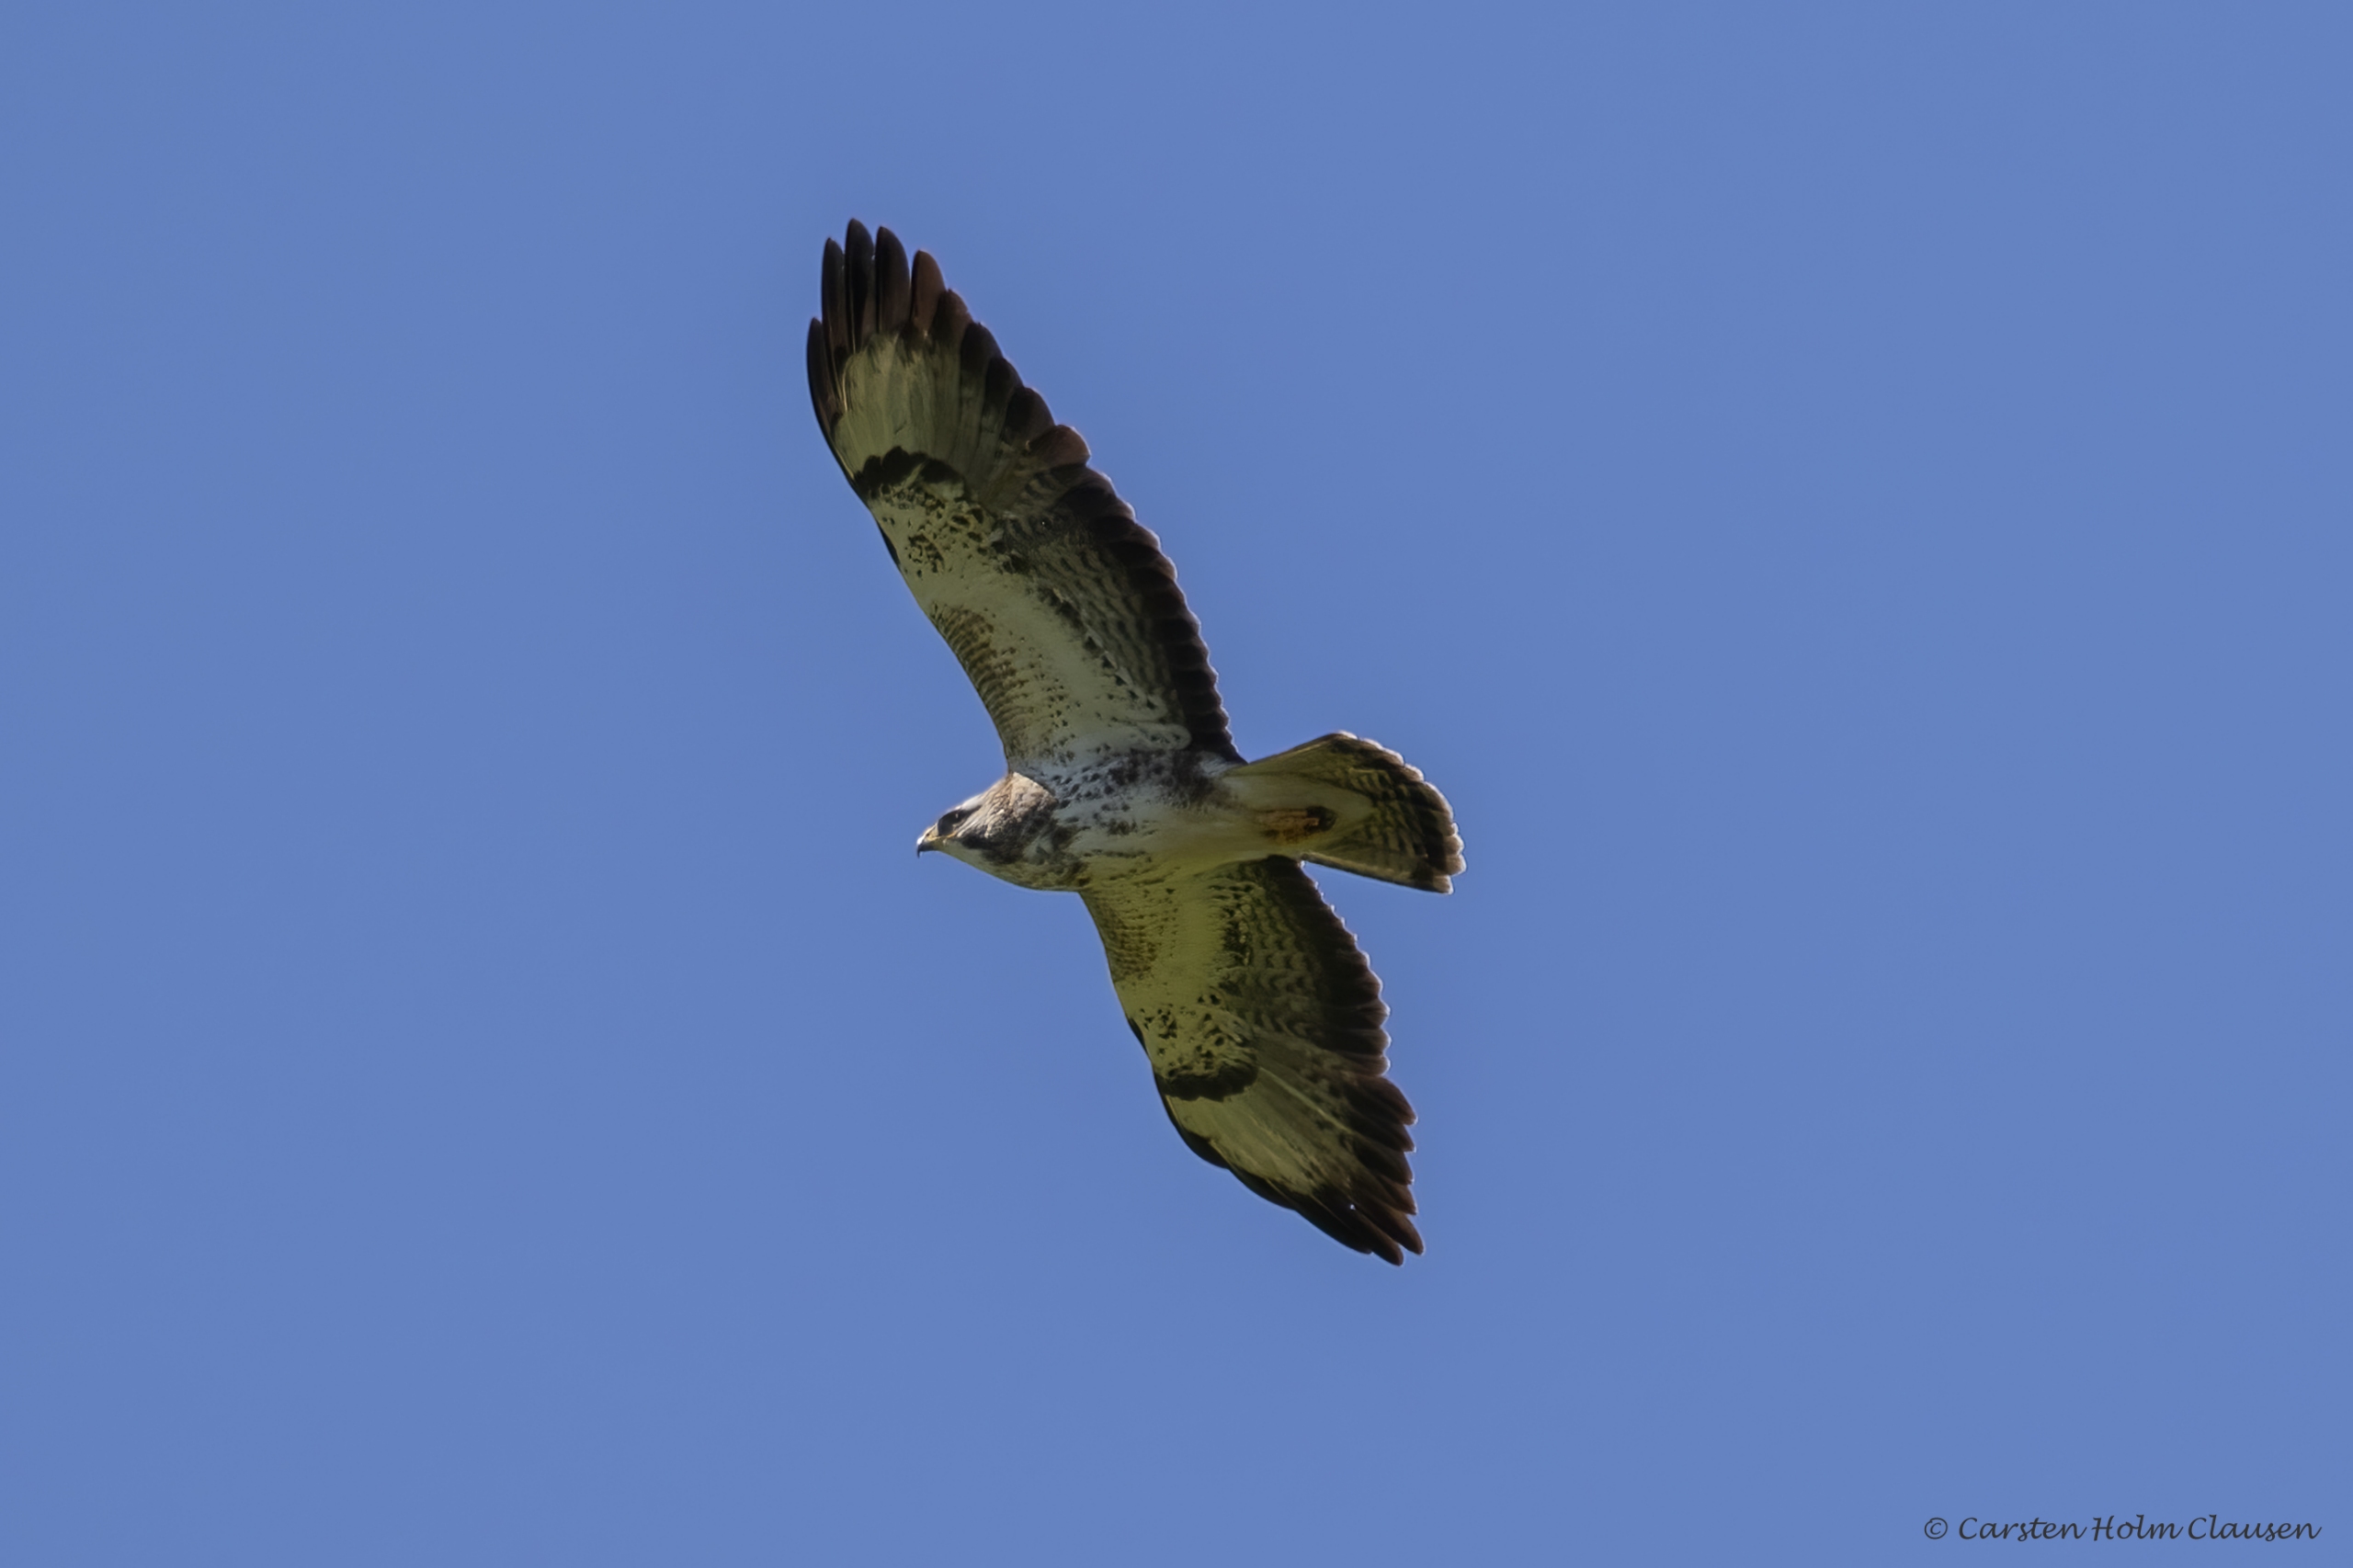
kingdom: Animalia
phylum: Chordata
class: Aves
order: Accipitriformes
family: Accipitridae
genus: Buteo
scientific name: Buteo buteo
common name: Musvåge
